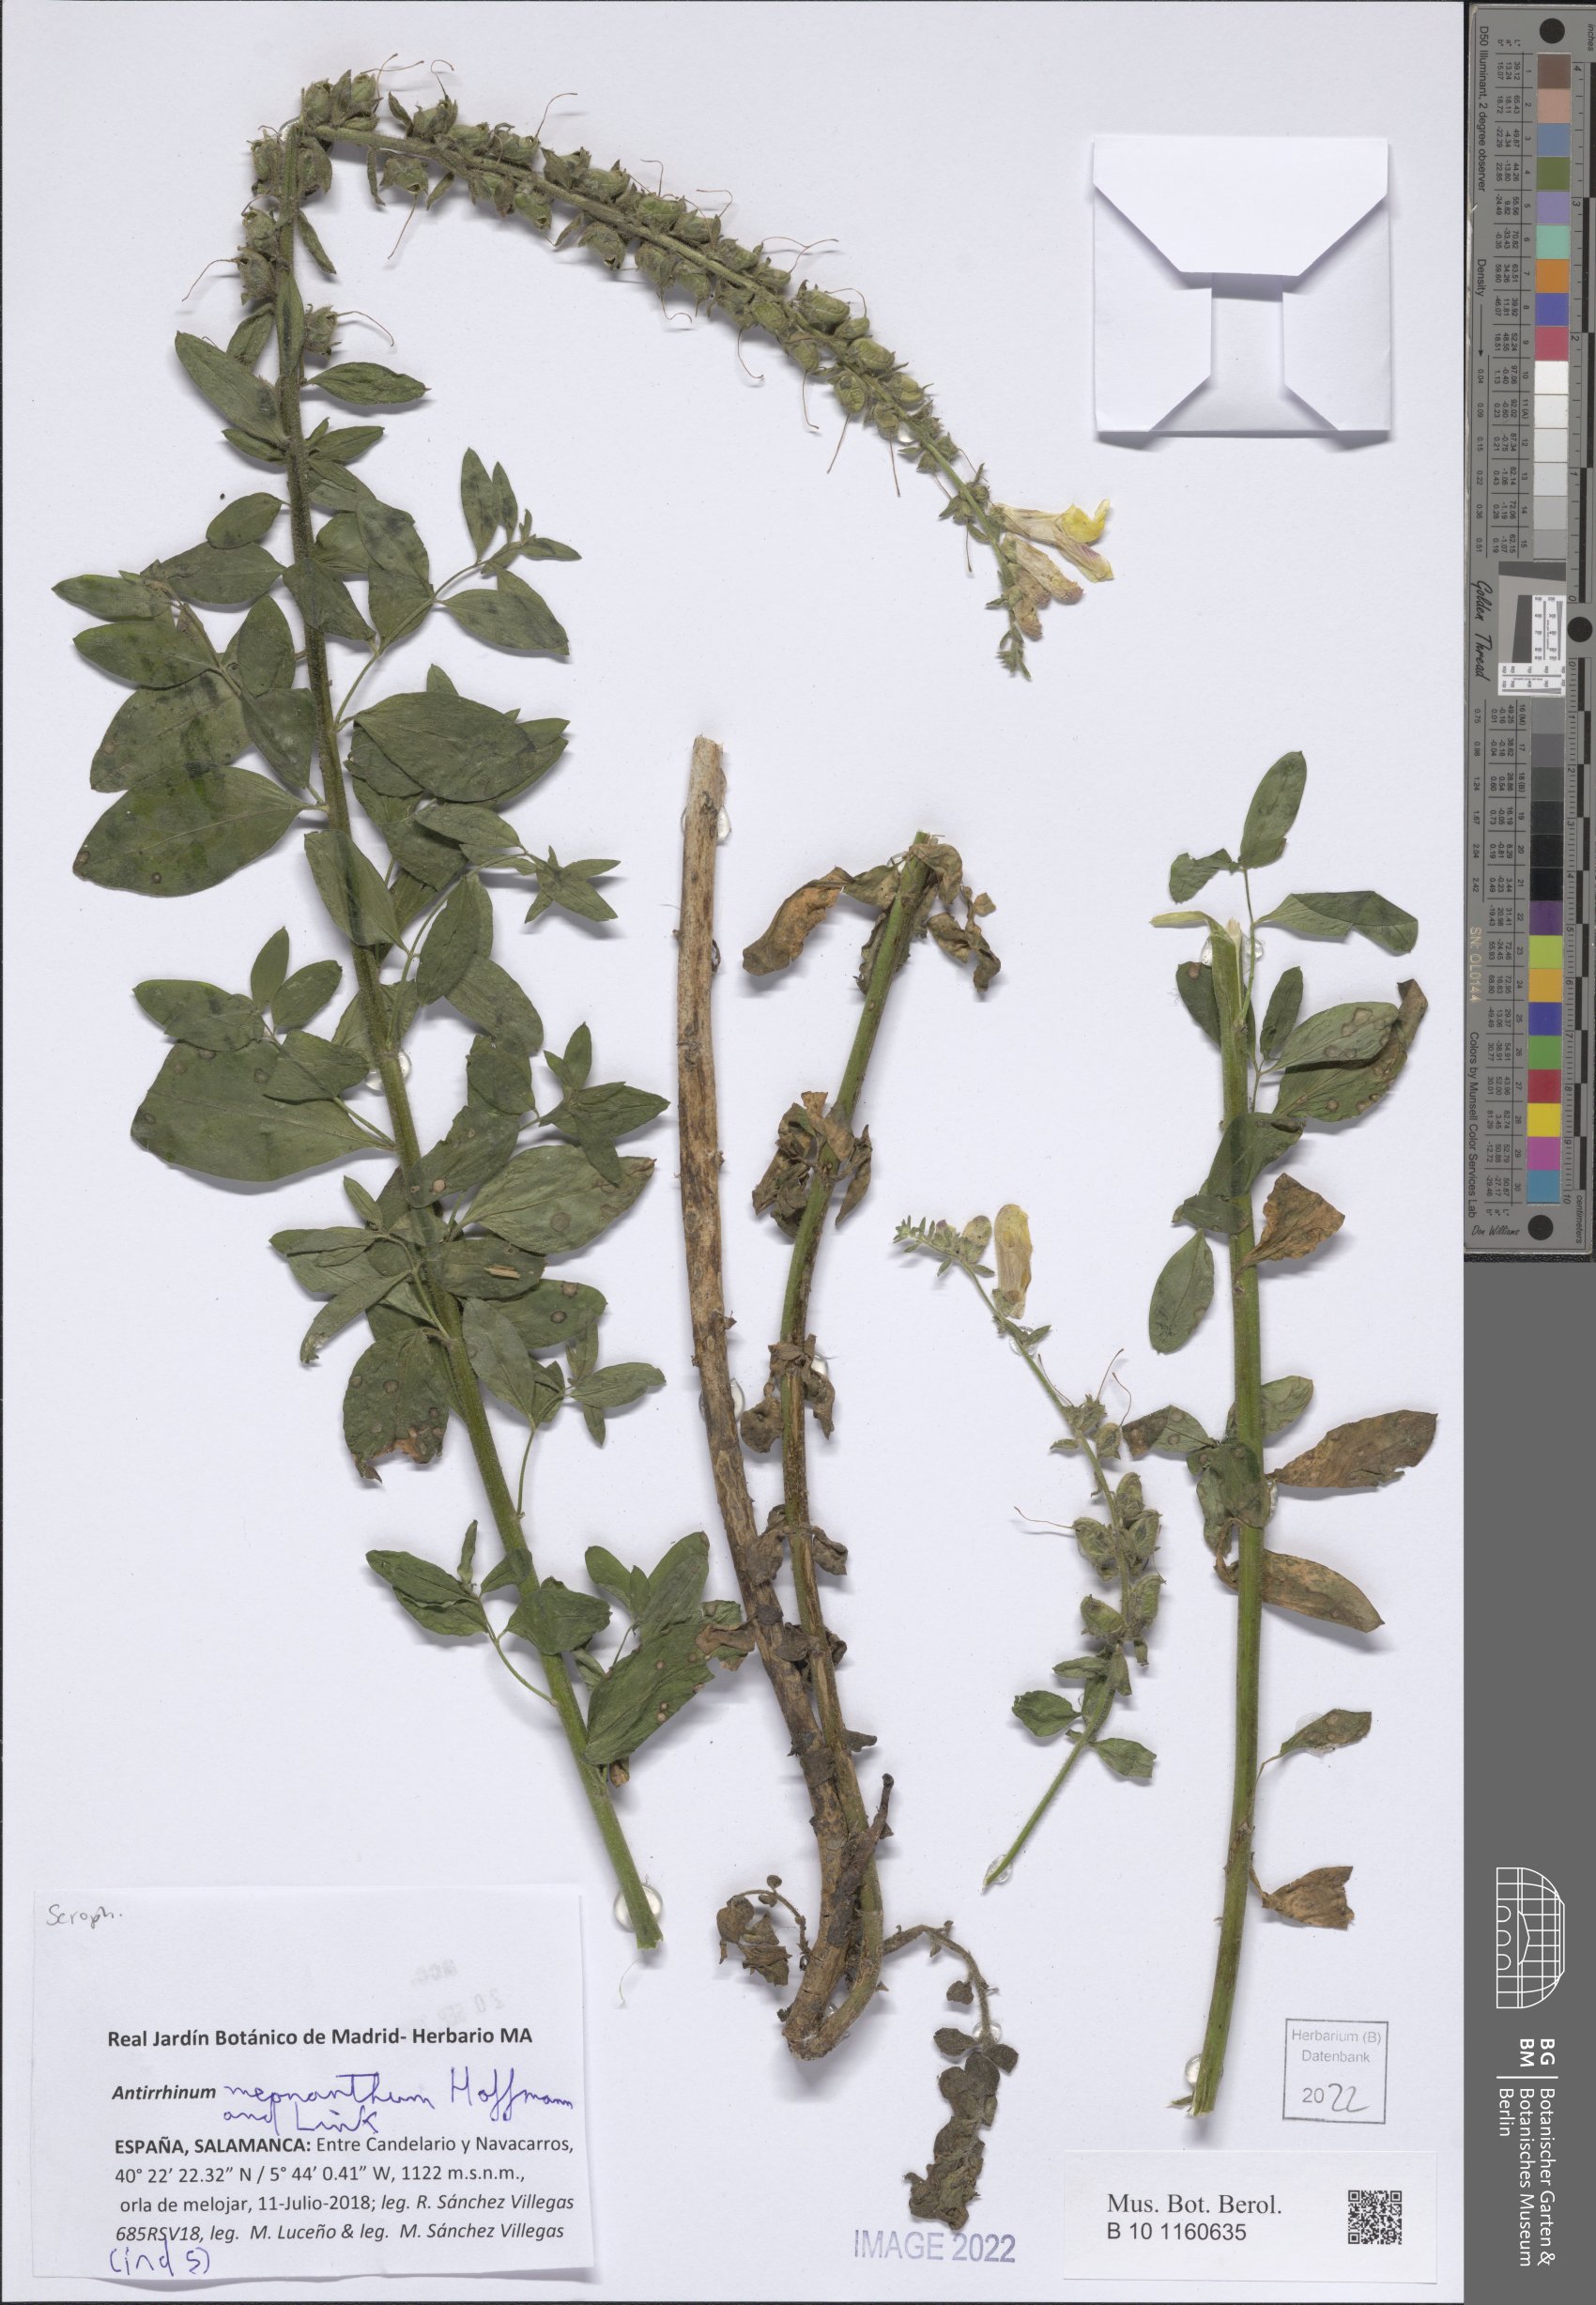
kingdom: Plantae
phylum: Tracheophyta
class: Magnoliopsida
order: Lamiales
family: Plantaginaceae
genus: Antirrhinum
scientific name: Antirrhinum meonanthum
